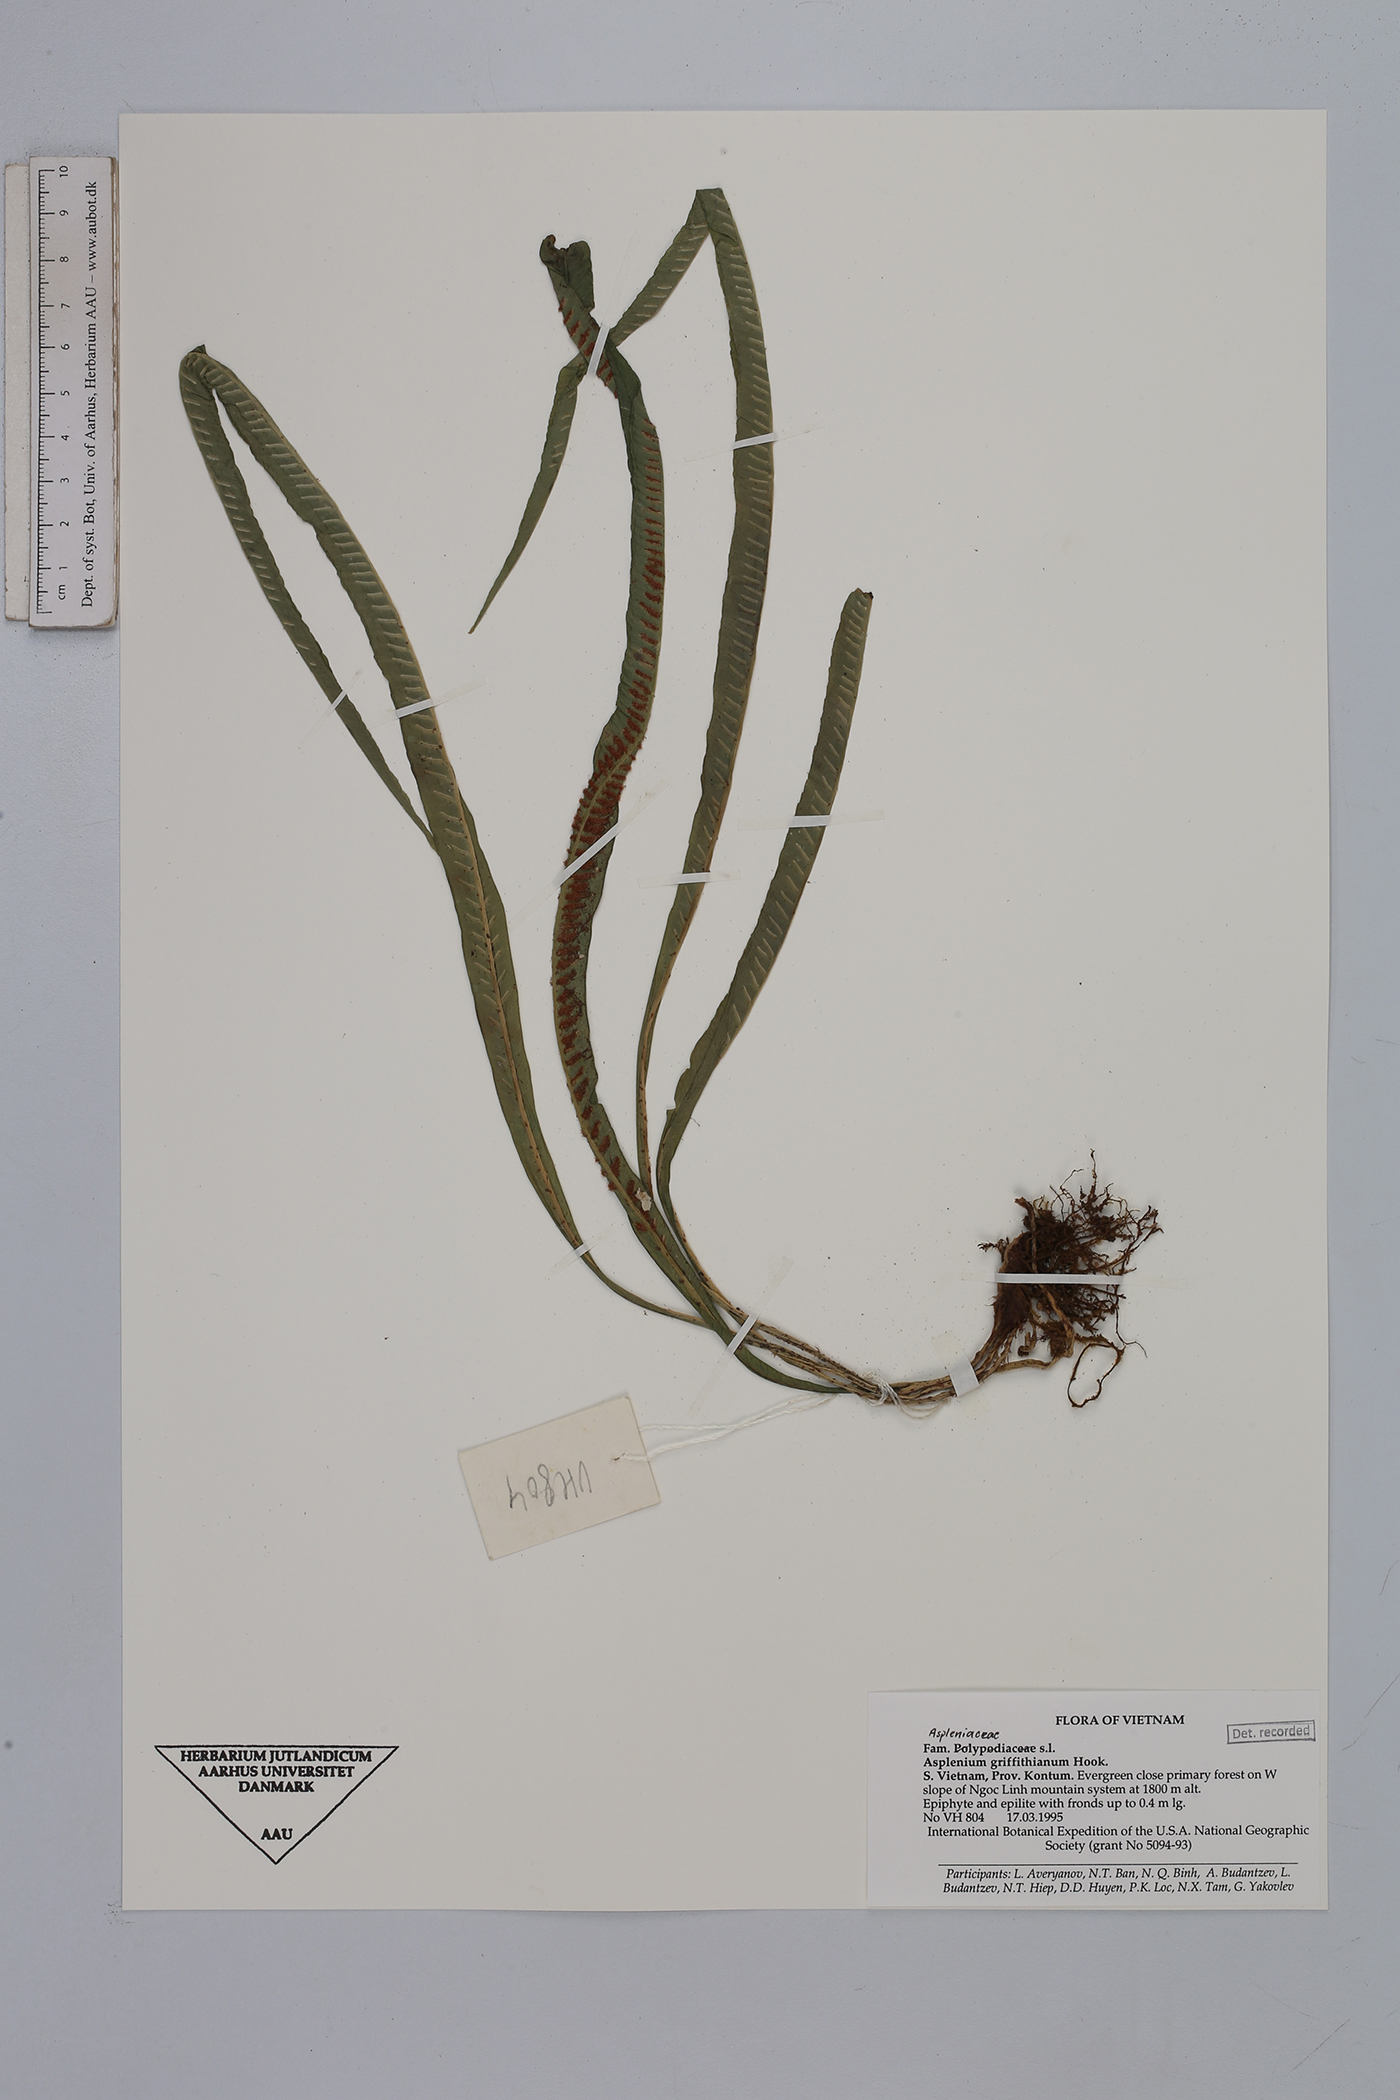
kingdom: Plantae
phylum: Tracheophyta
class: Polypodiopsida
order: Polypodiales
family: Aspleniaceae
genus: Asplenium
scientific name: Asplenium griffithianum
